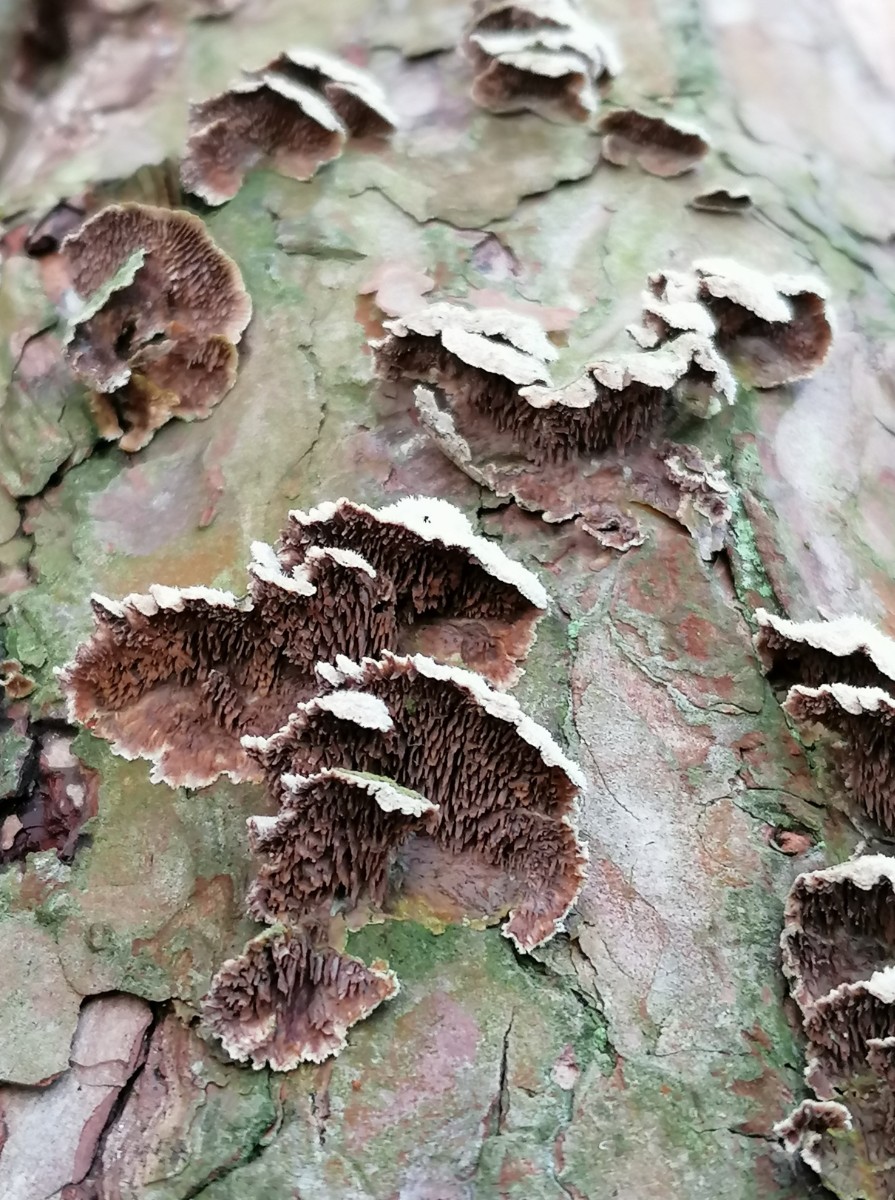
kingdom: Fungi
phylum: Basidiomycota
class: Agaricomycetes
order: Hymenochaetales
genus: Trichaptum
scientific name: Trichaptum fuscoviolaceum
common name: tandet violporesvamp
